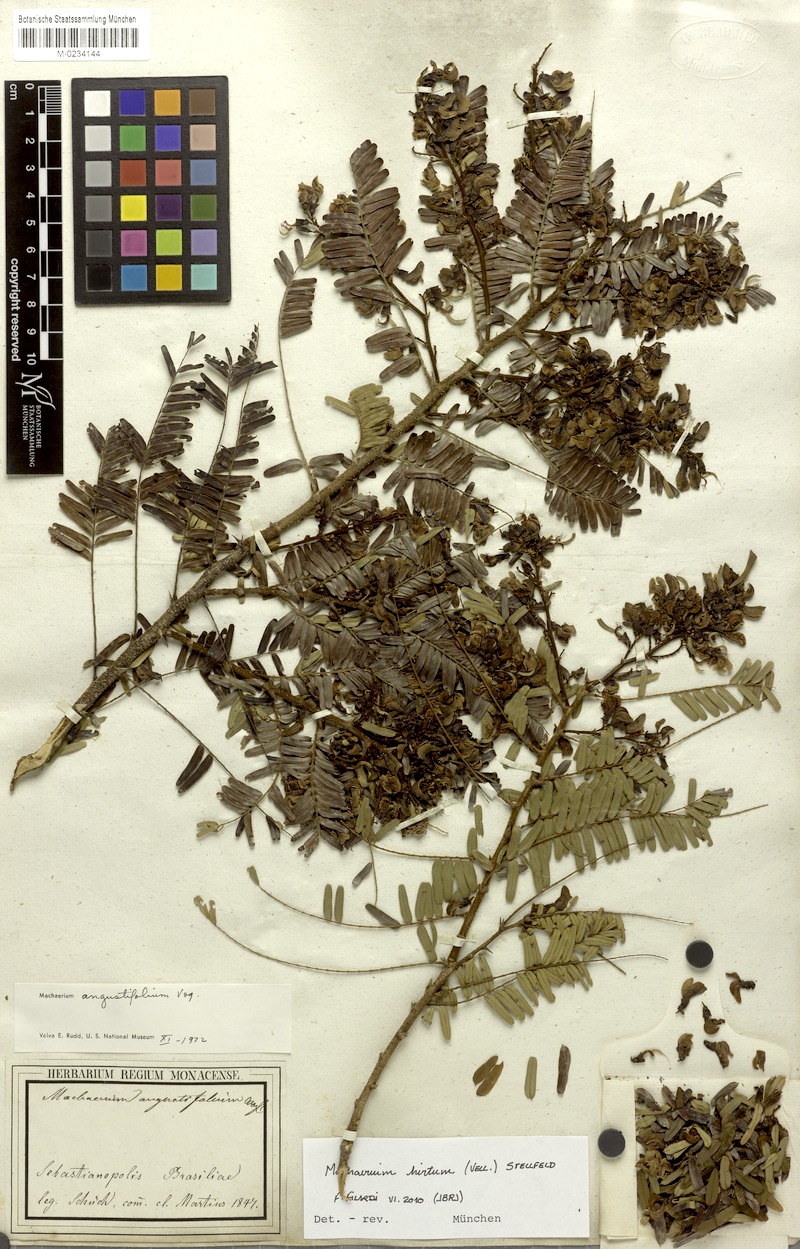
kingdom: Plantae
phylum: Tracheophyta
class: Magnoliopsida
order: Fabales
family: Fabaceae
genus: Machaerium
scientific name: Machaerium hirtum
